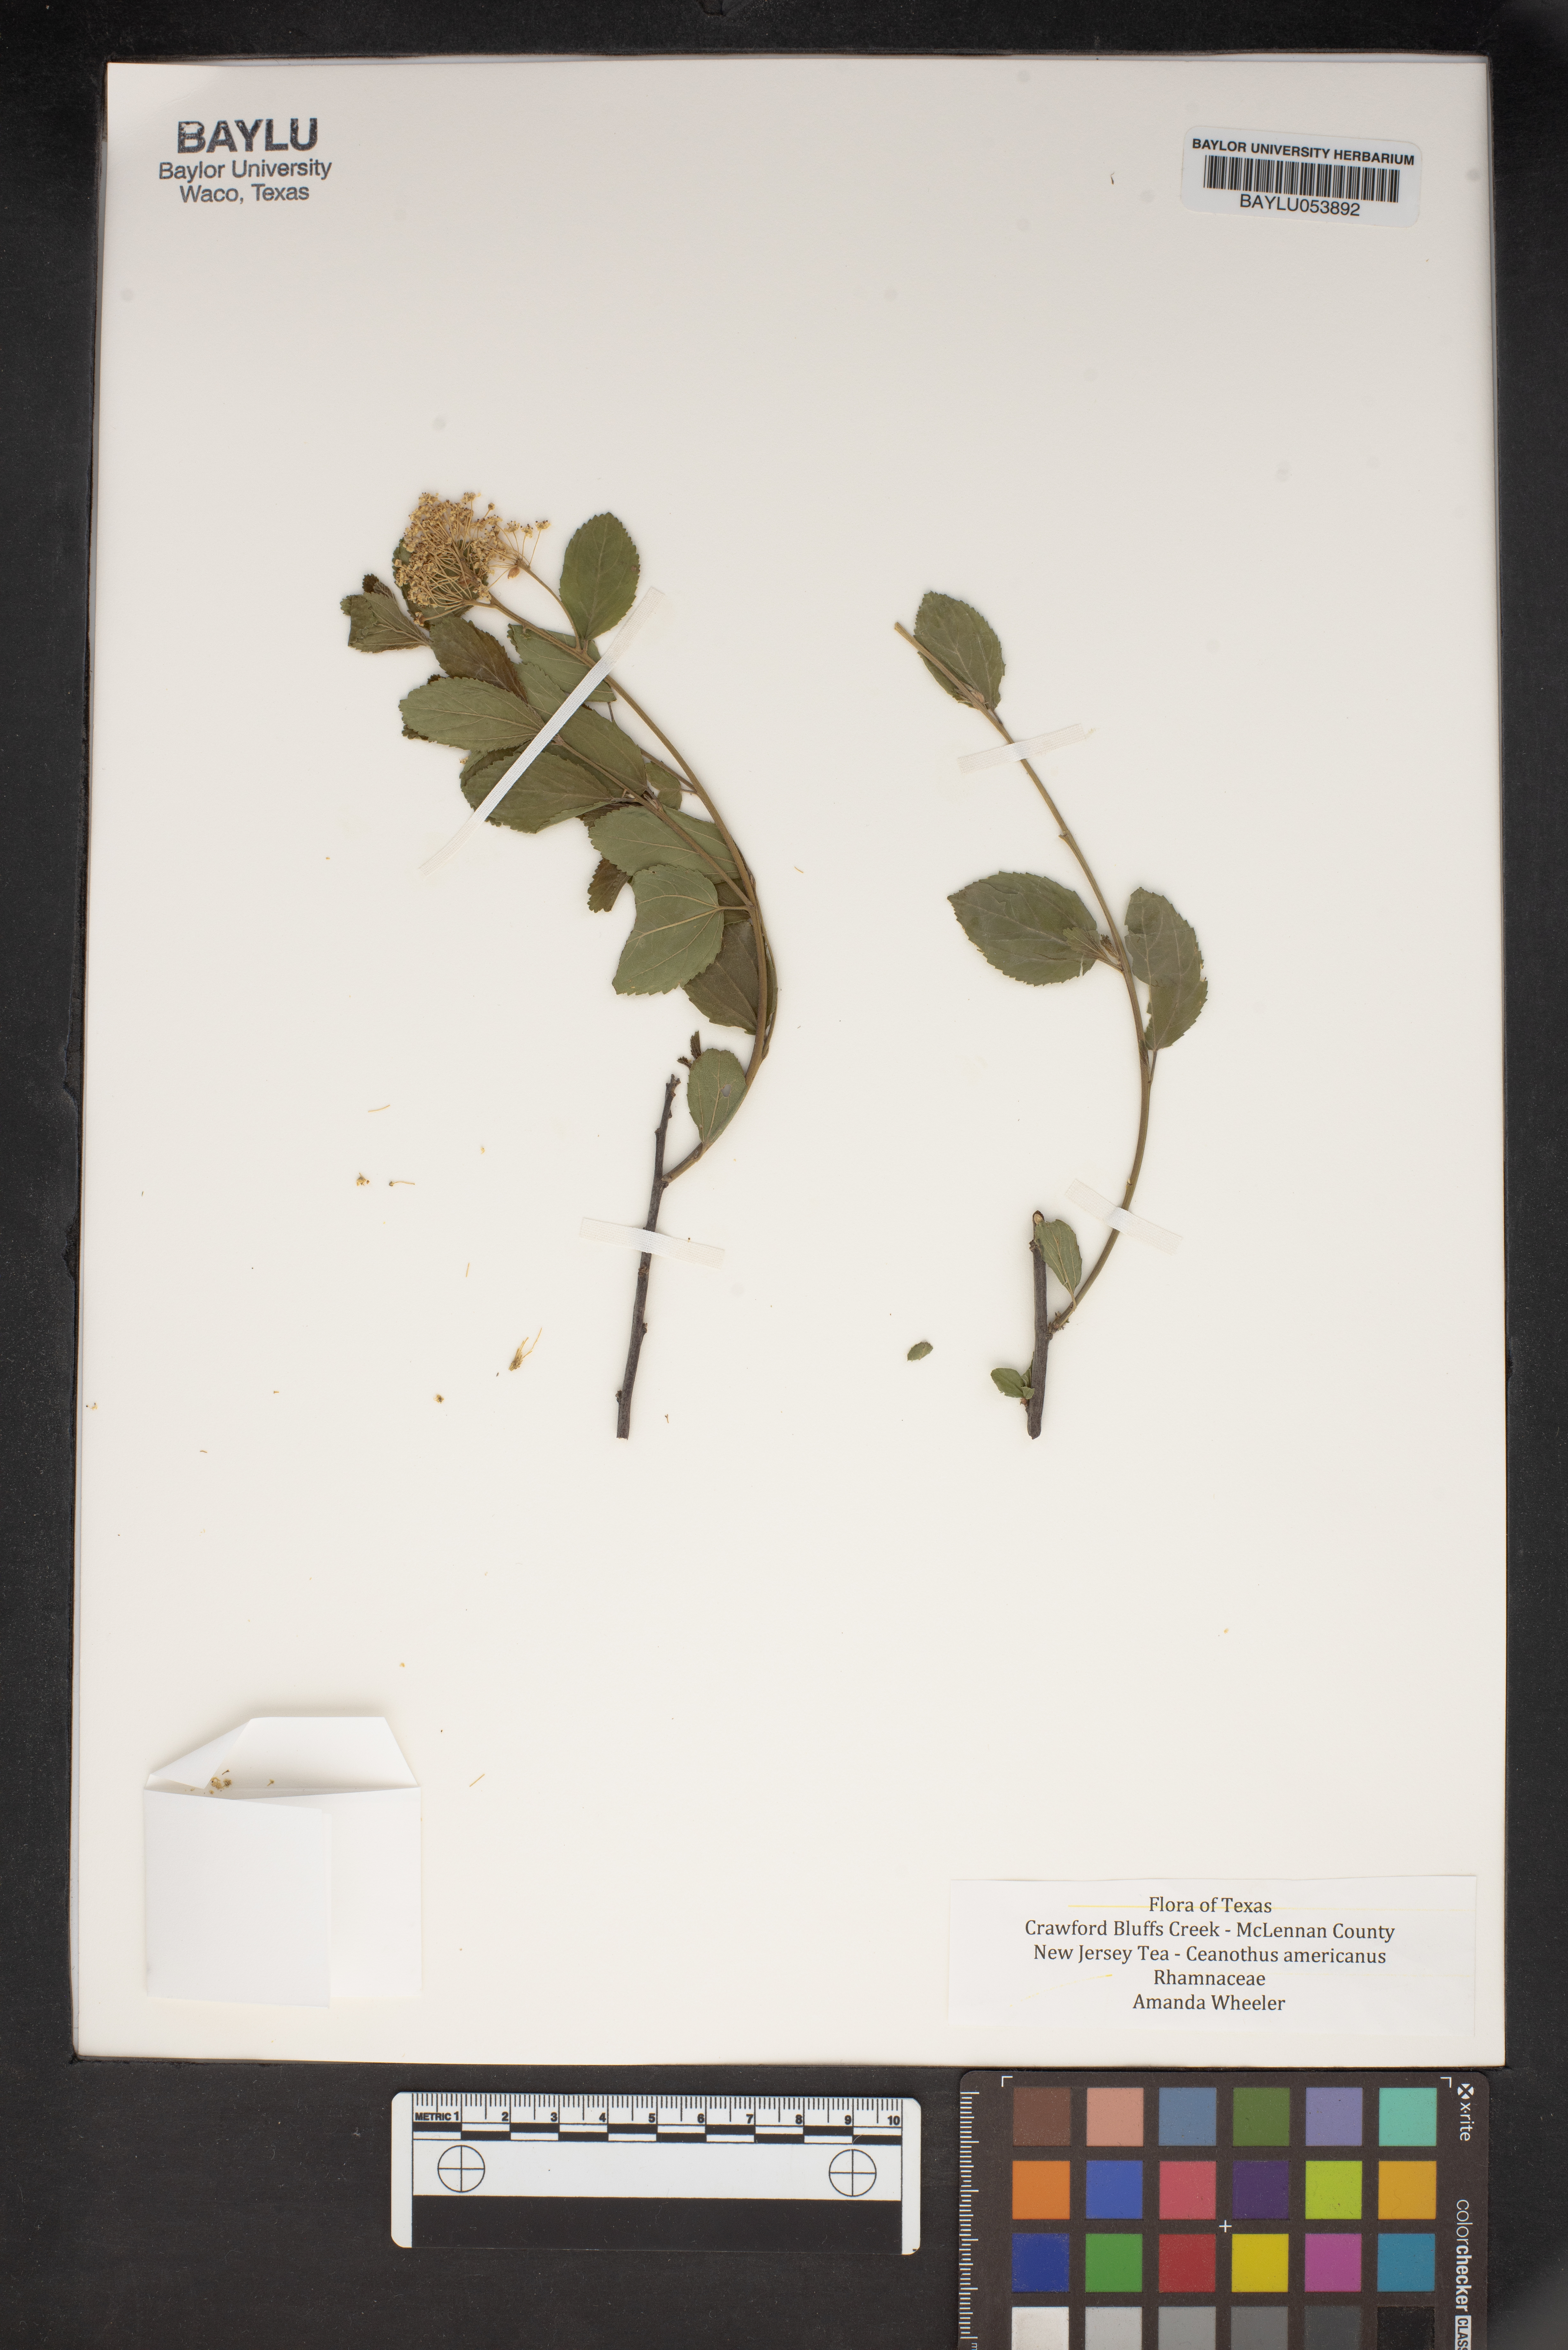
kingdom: Plantae
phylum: Tracheophyta
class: Magnoliopsida
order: Rosales
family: Rhamnaceae
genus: Ceanothus
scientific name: Ceanothus americanus
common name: Redroot
